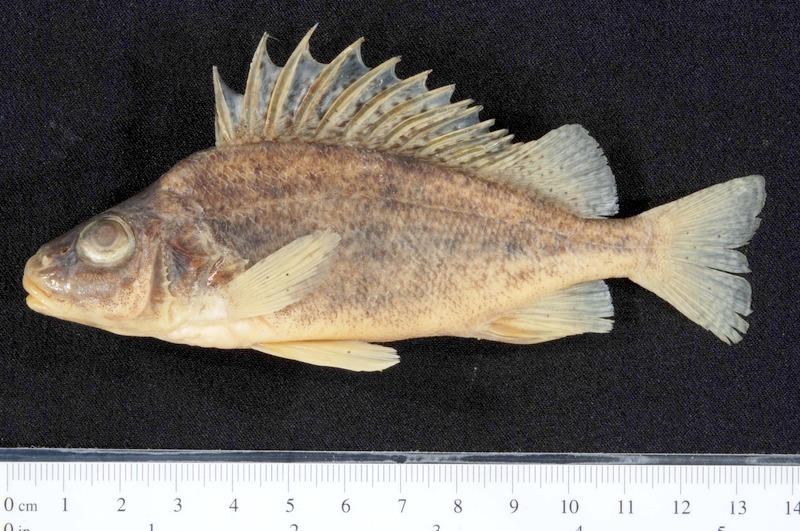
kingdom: Animalia
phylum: Chordata
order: Perciformes
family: Percidae
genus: Gymnocephalus
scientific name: Gymnocephalus baloni
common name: Balon's ruffe
